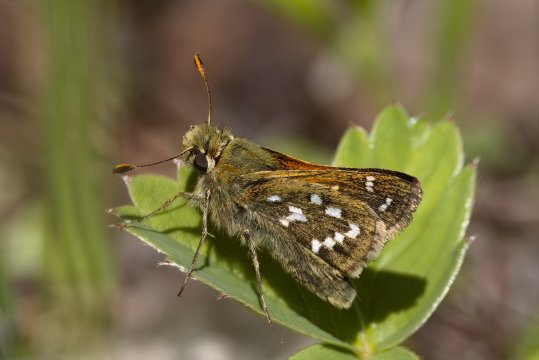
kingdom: Animalia
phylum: Arthropoda
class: Insecta
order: Lepidoptera
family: Hesperiidae
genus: Hesperia
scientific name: Hesperia comma
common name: Common Branded Skipper
